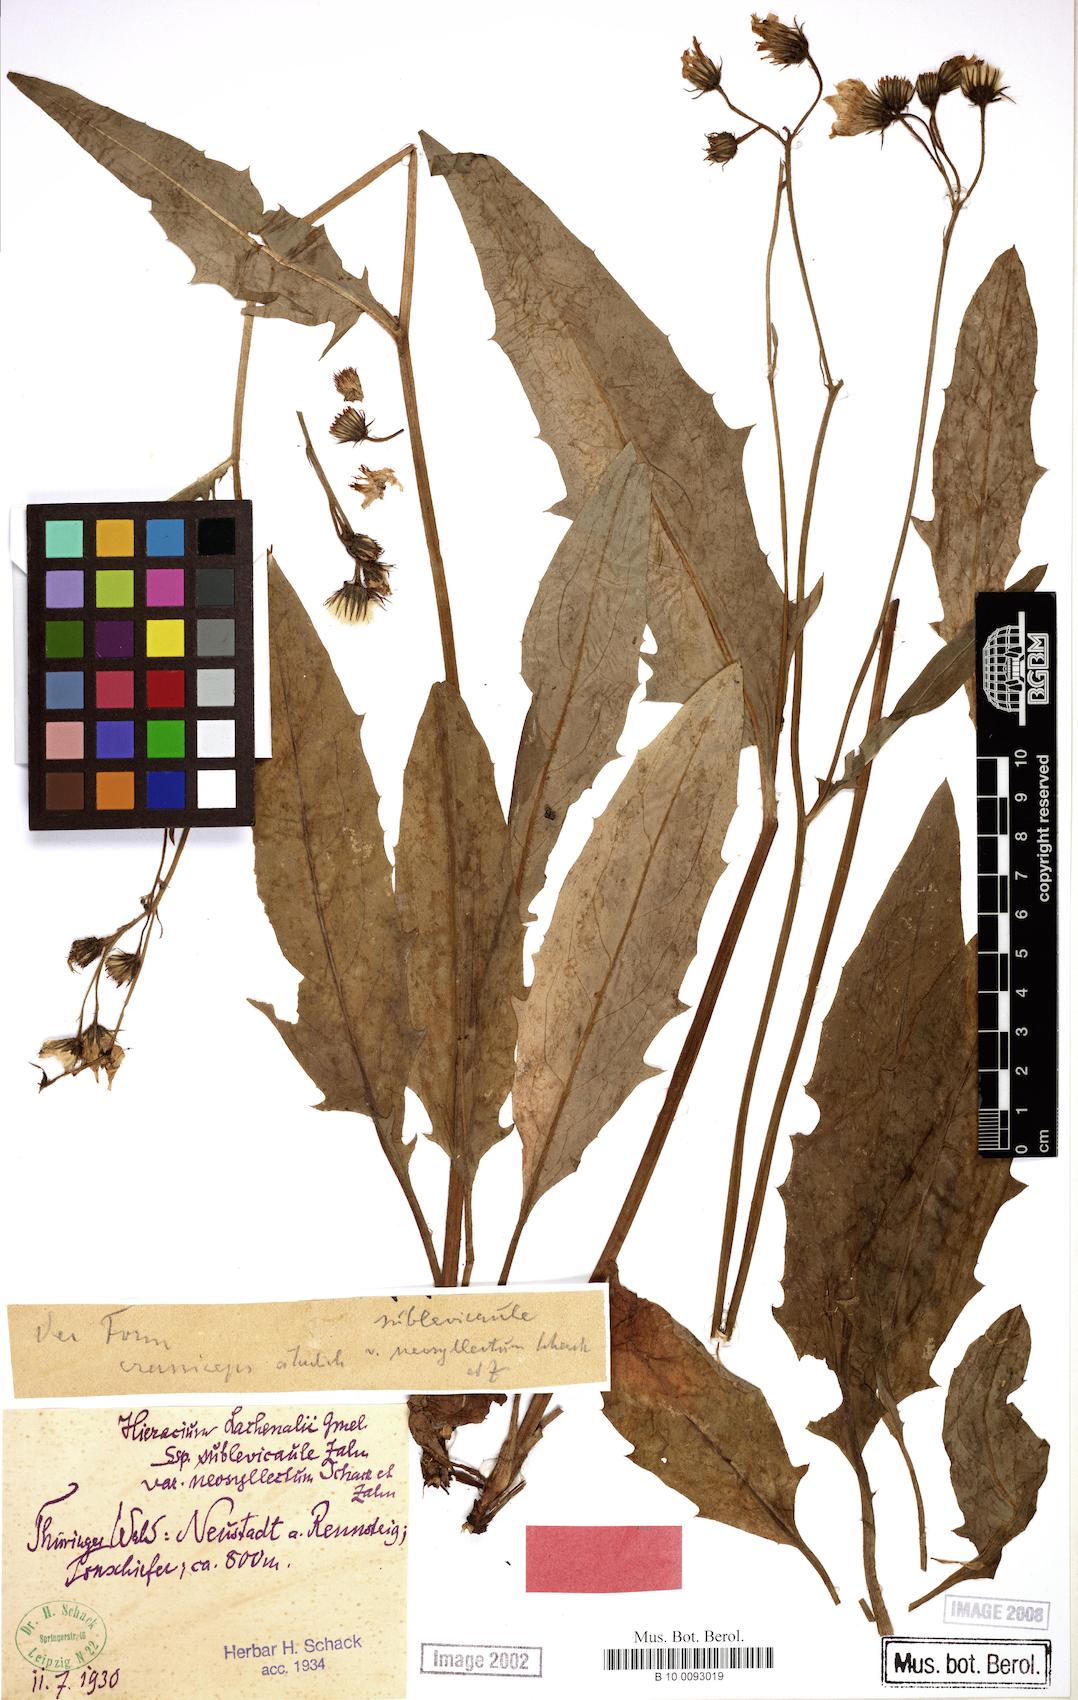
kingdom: Plantae
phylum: Tracheophyta
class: Magnoliopsida
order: Asterales
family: Asteraceae
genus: Hieracium
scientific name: Hieracium lachenalii
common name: Common hawkweed
